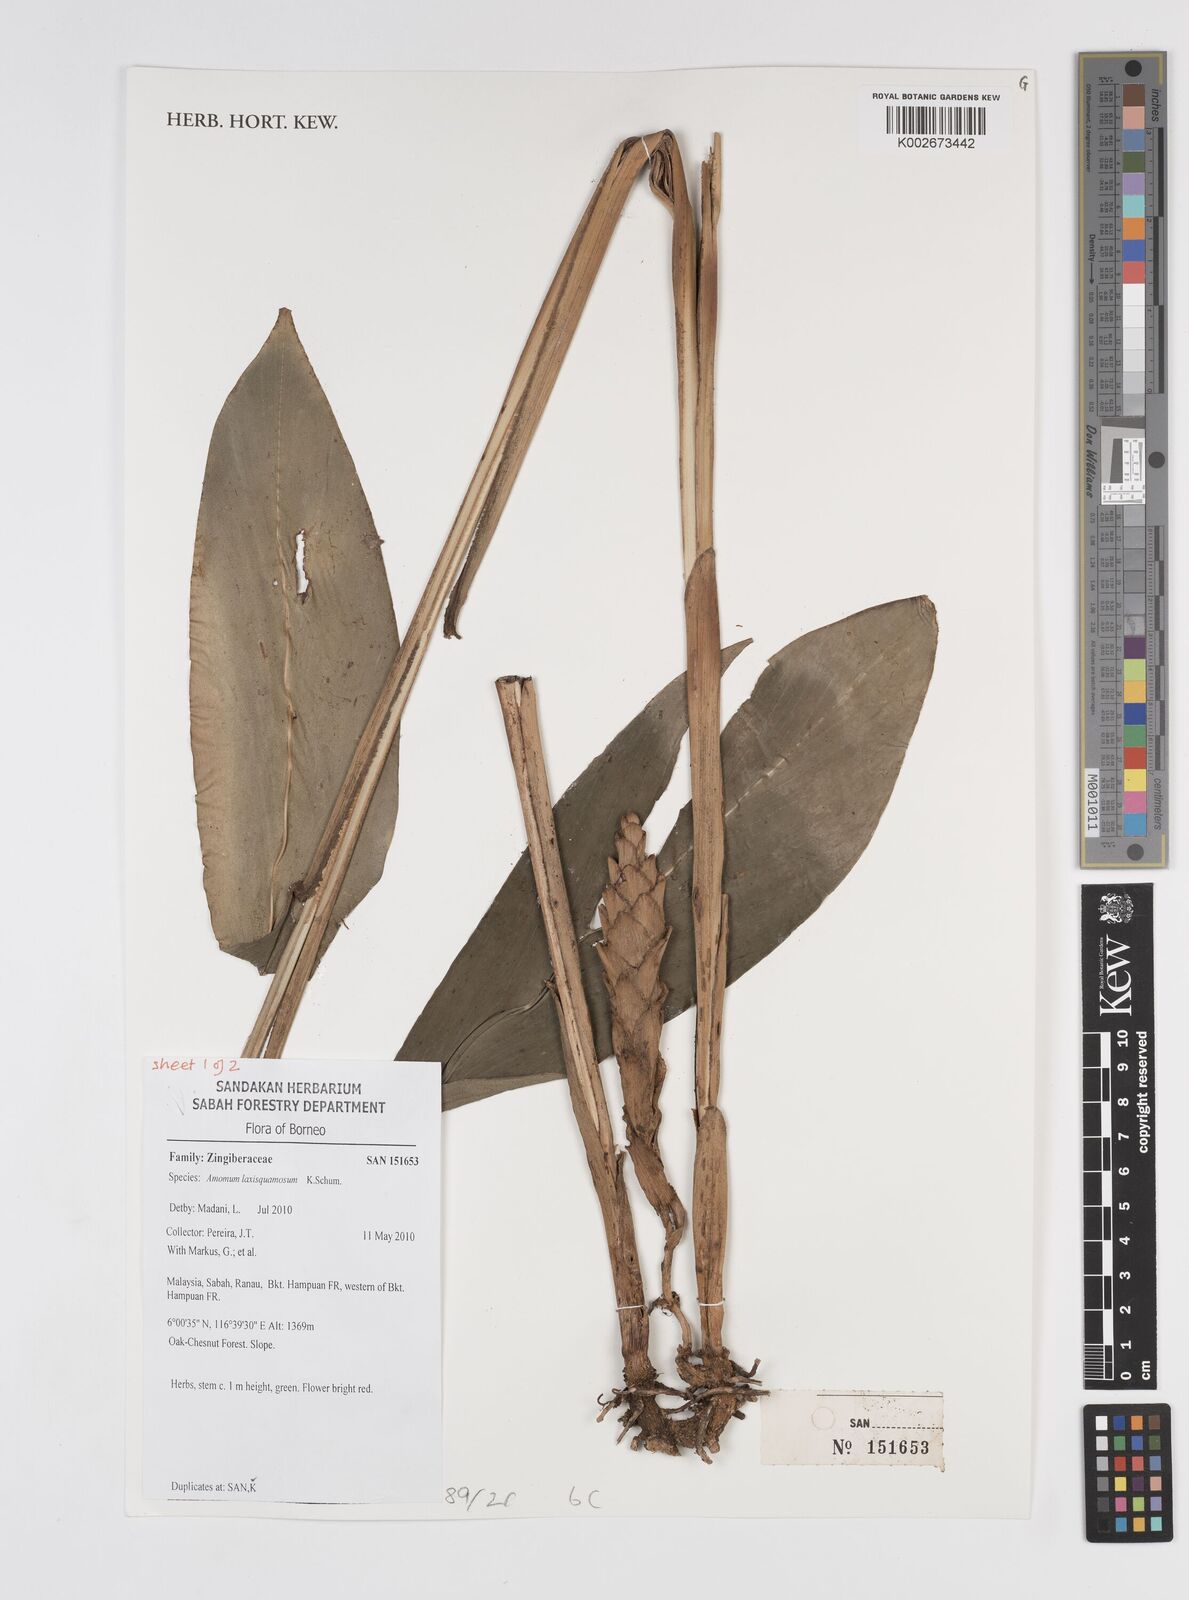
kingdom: Plantae
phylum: Tracheophyta
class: Liliopsida
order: Zingiberales
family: Zingiberaceae
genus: Sundamomum
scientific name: Sundamomum laxesquamosum
